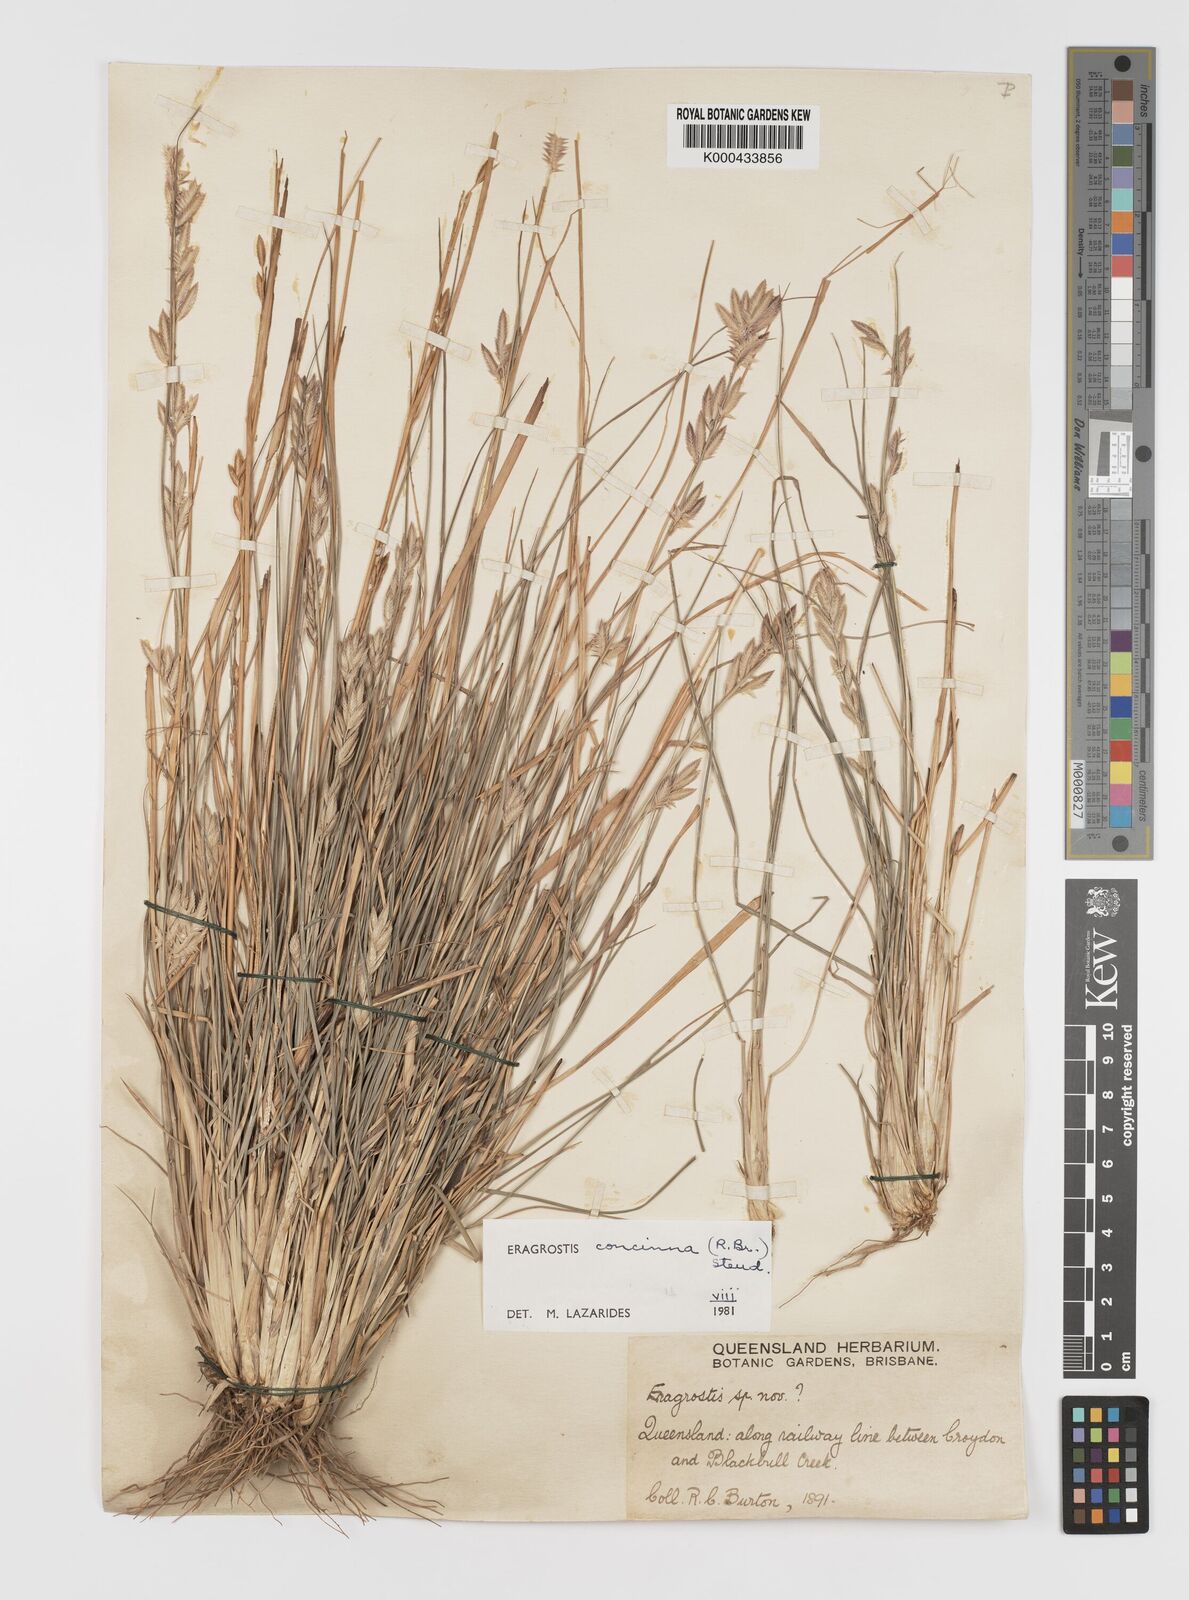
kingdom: Plantae
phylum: Tracheophyta
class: Liliopsida
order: Poales
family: Poaceae
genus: Eragrostis
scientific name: Eragrostis concinna
